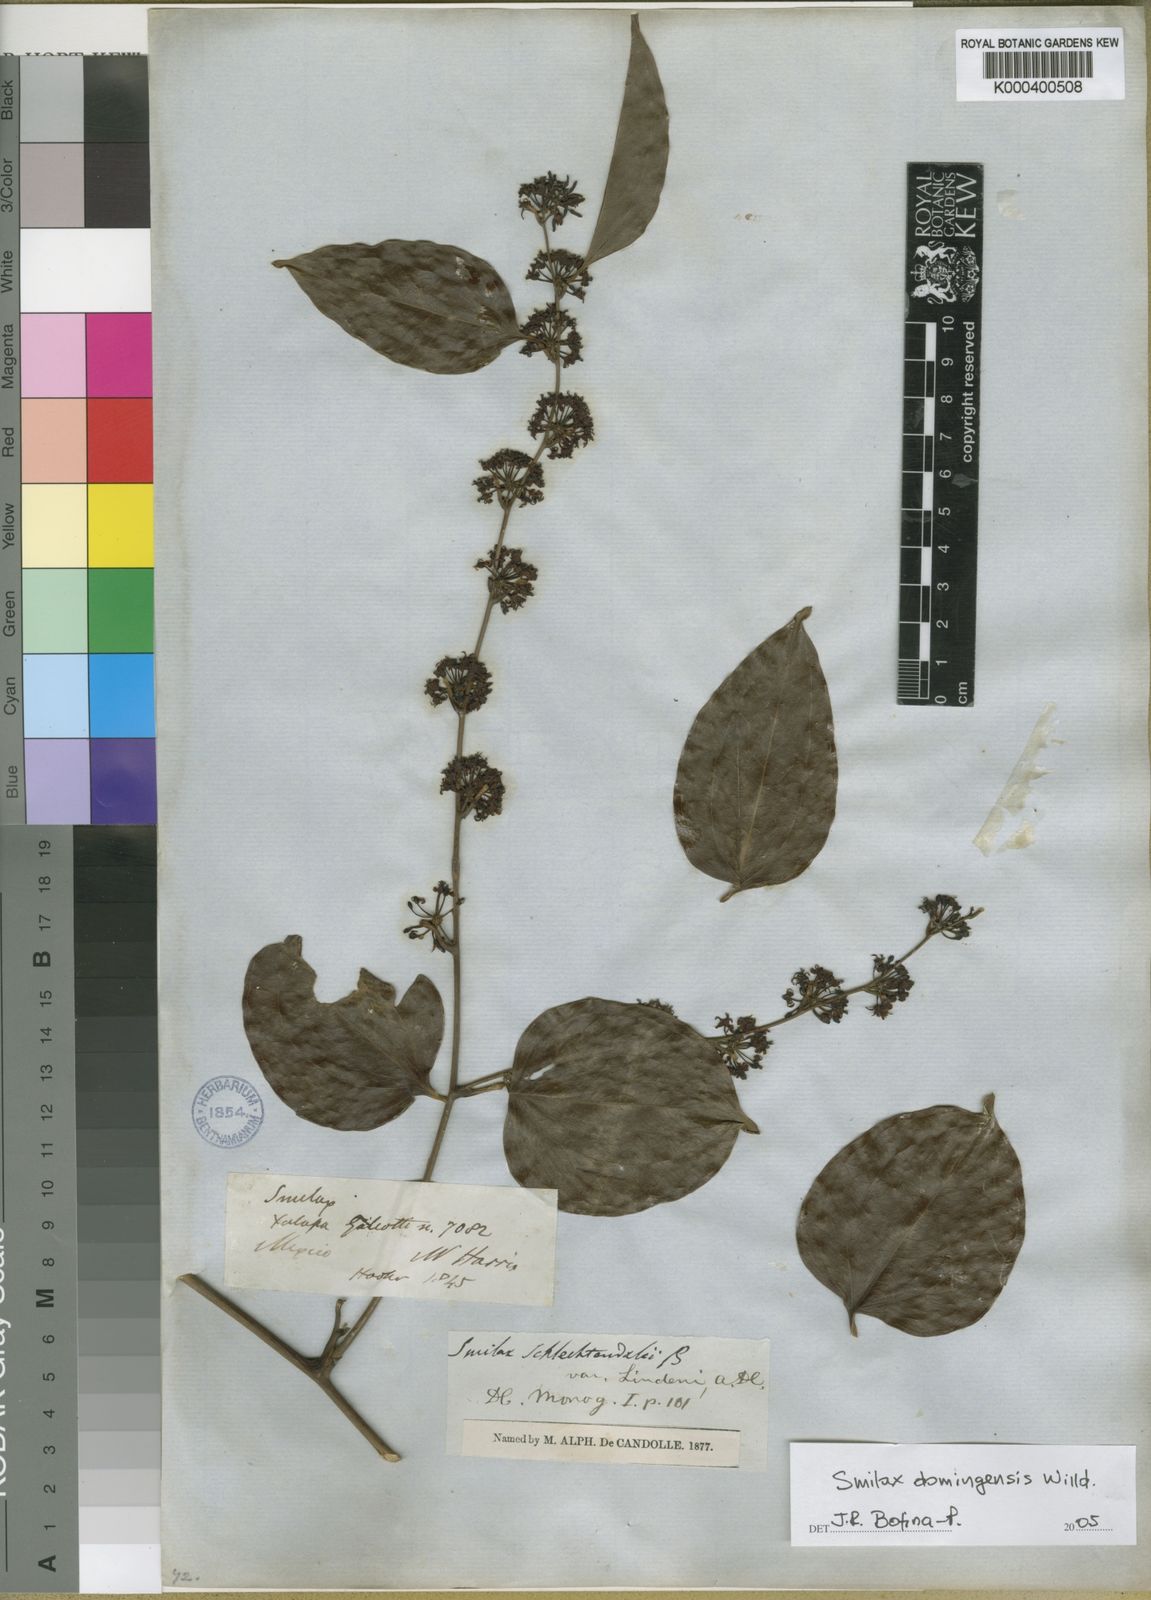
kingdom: Plantae
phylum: Tracheophyta
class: Liliopsida
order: Liliales
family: Smilacaceae
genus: Smilax
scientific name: Smilax domingensis
